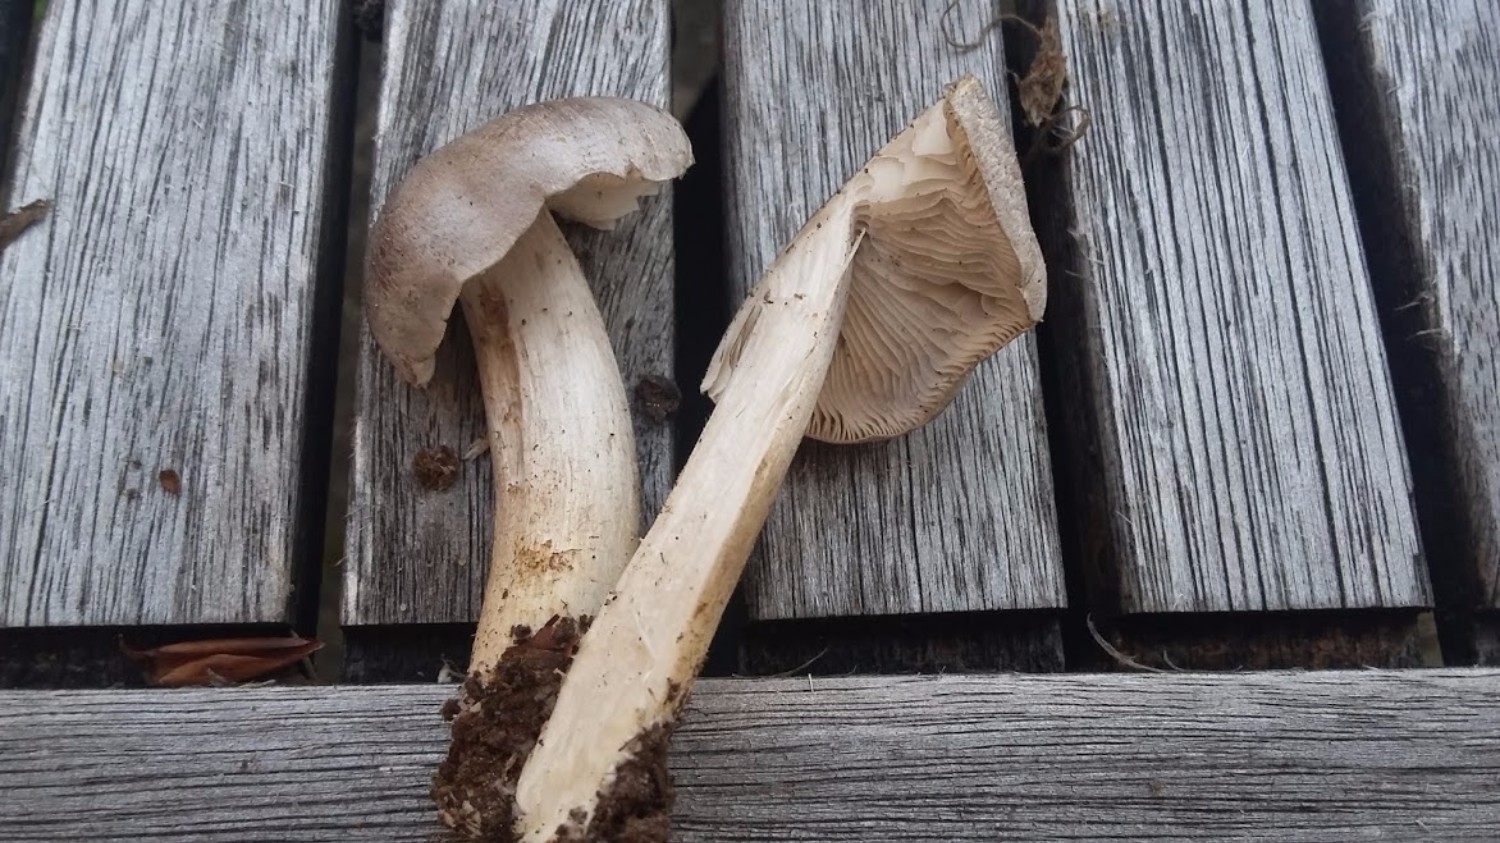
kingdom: Fungi
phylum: Basidiomycota
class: Agaricomycetes
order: Agaricales
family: Tricholomataceae
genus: Tricholoma
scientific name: Tricholoma
